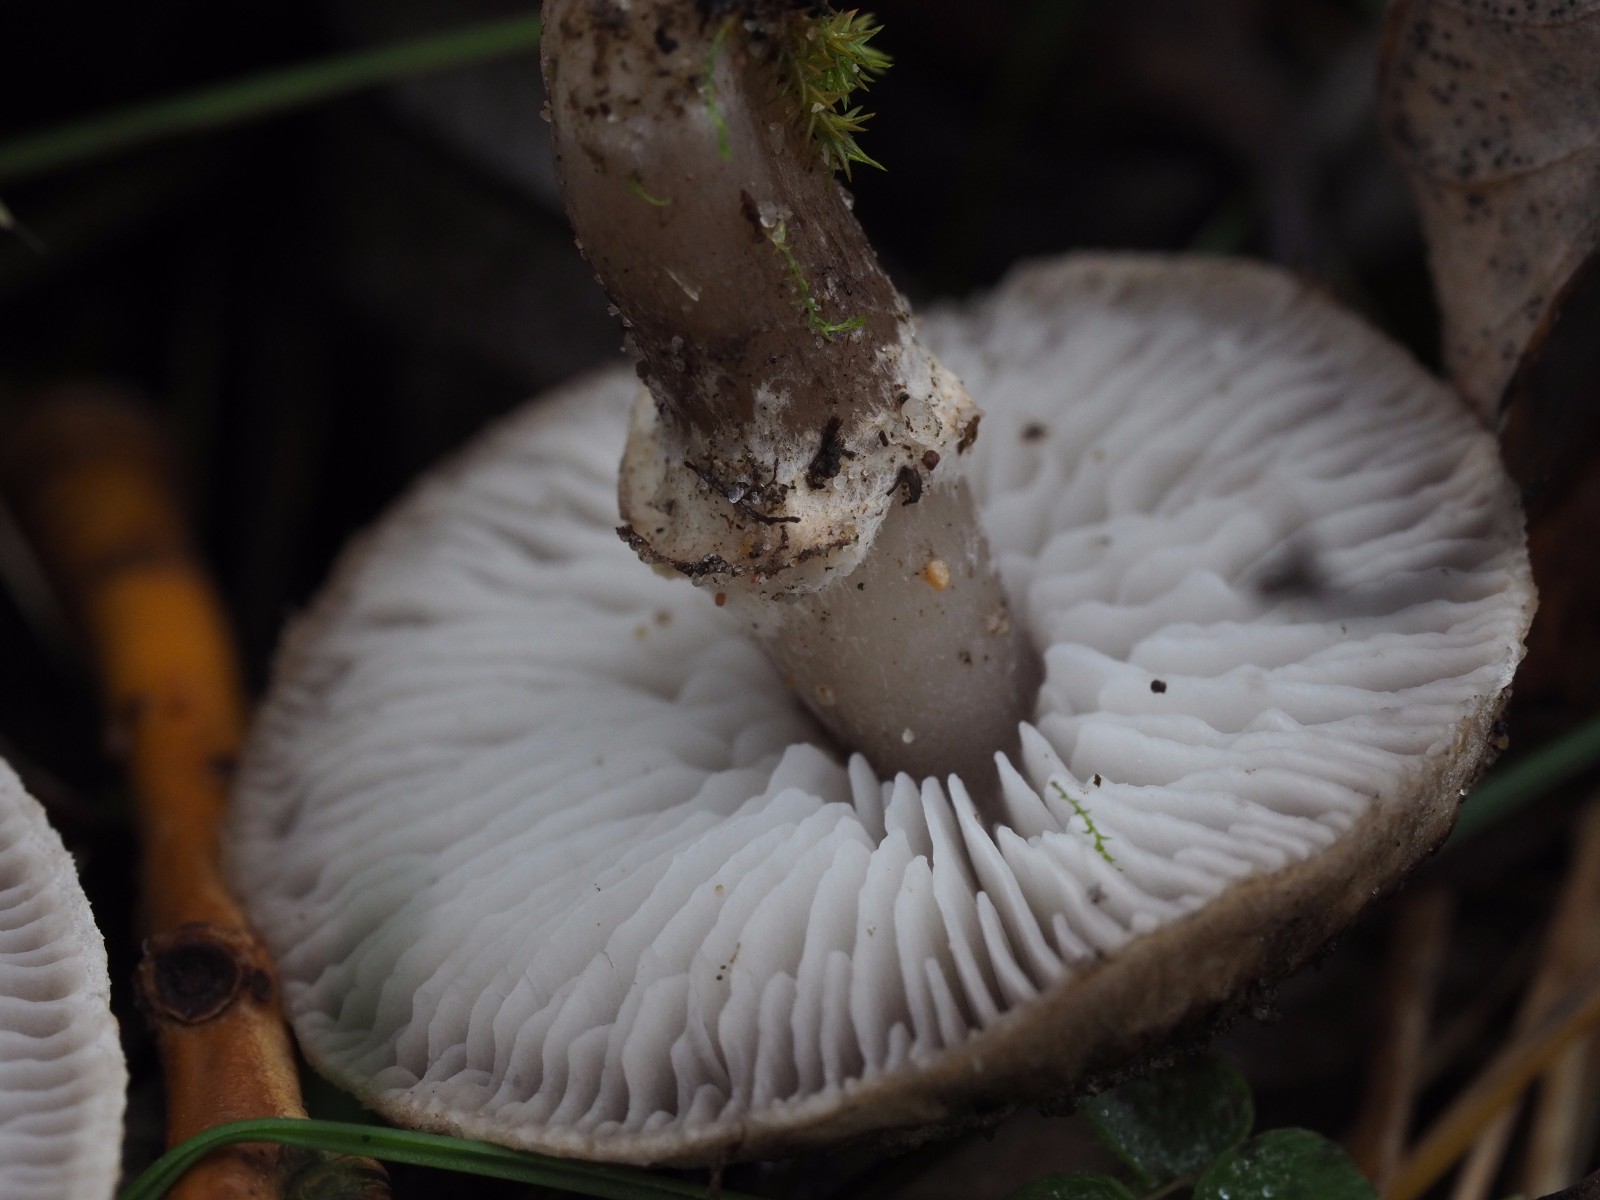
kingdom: Fungi
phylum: Basidiomycota
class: Agaricomycetes
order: Agaricales
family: Tricholomataceae
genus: Tricholoma
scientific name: Tricholoma cingulatum
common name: ring-ridderhat
